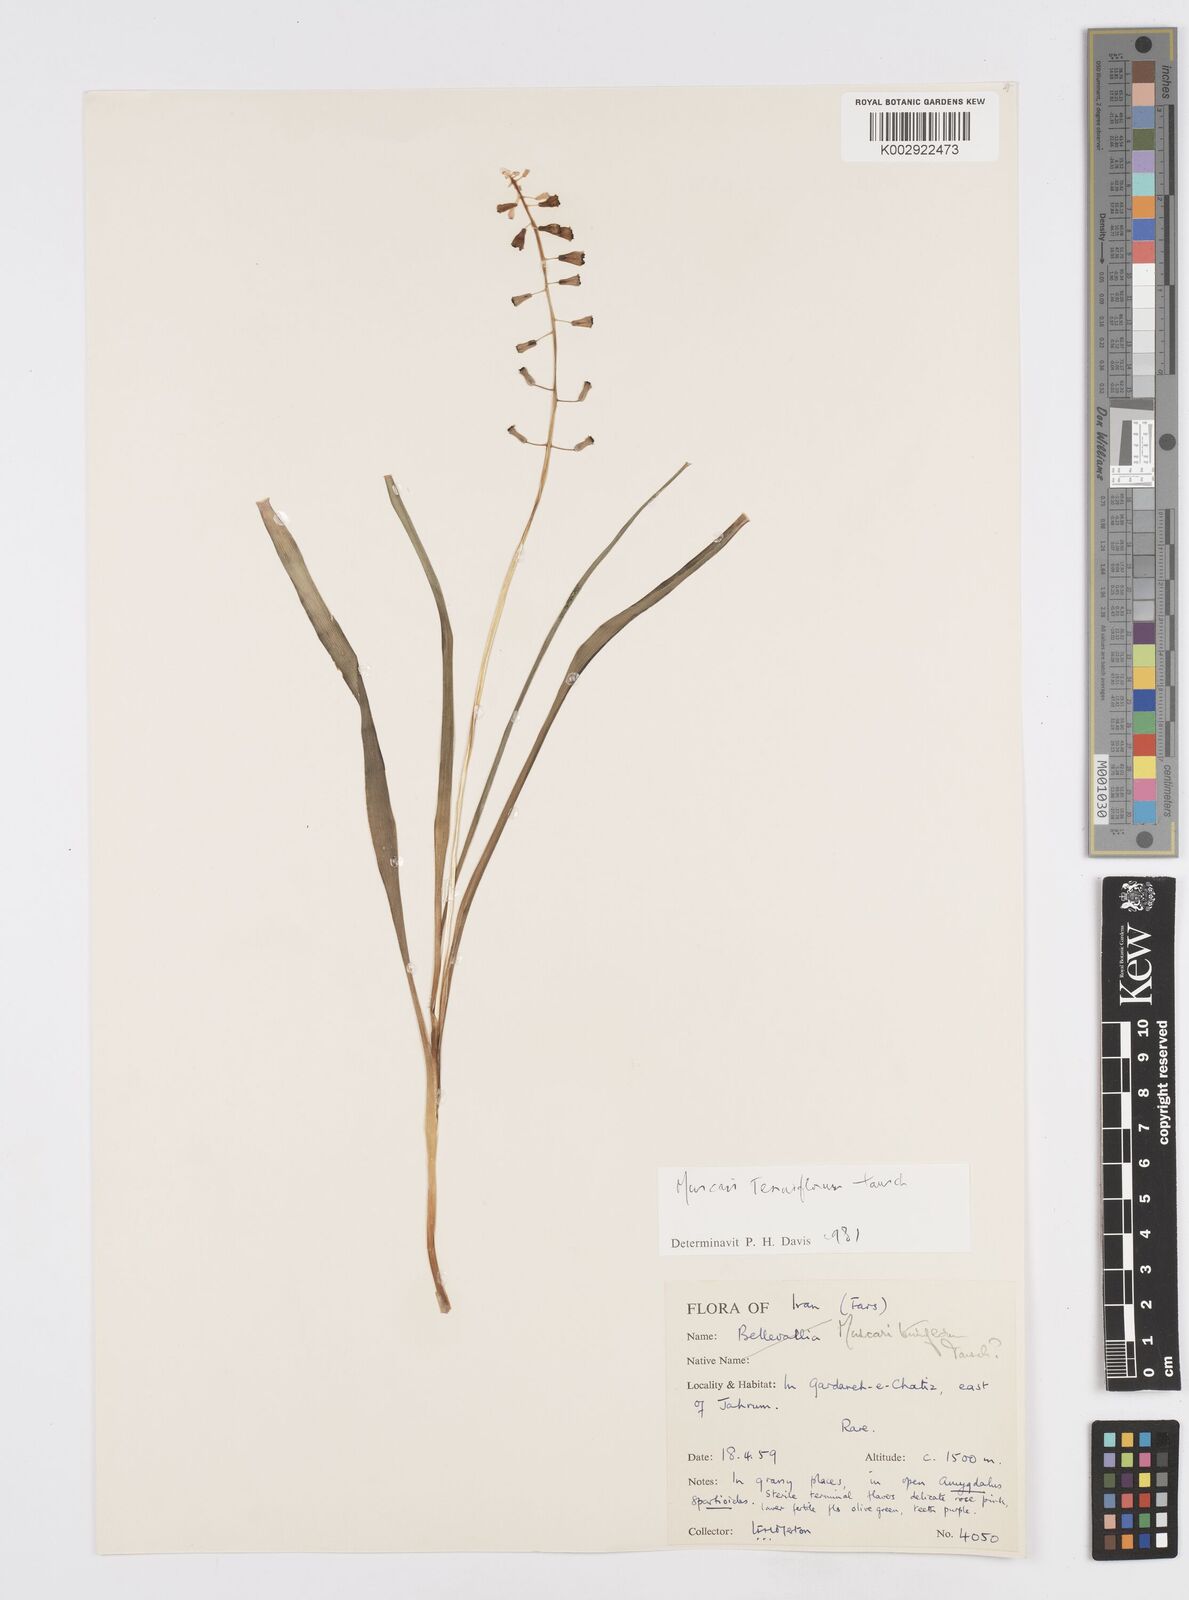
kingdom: Plantae
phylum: Tracheophyta
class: Liliopsida
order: Asparagales
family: Asparagaceae
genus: Muscari
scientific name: Muscari tenuiflorum
